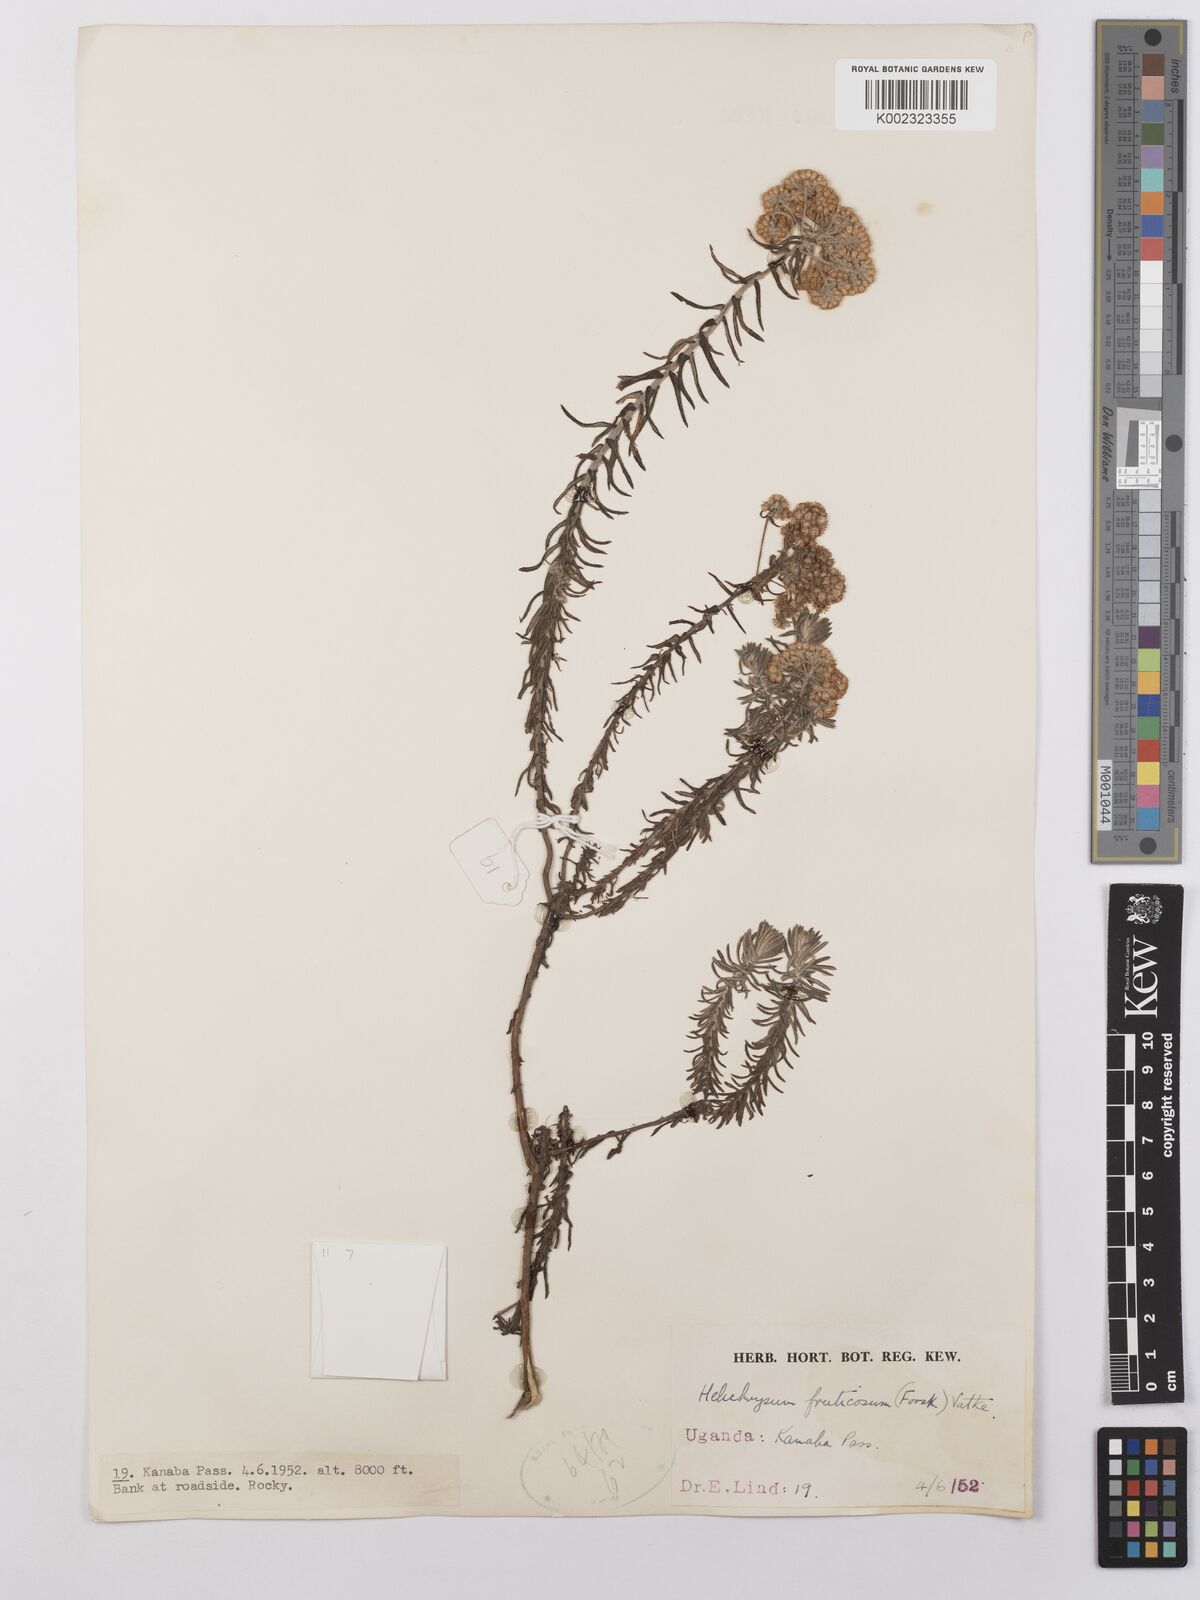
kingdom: Plantae
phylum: Tracheophyta
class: Magnoliopsida
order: Asterales
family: Asteraceae
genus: Helichrysum
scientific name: Helichrysum forskahlii
